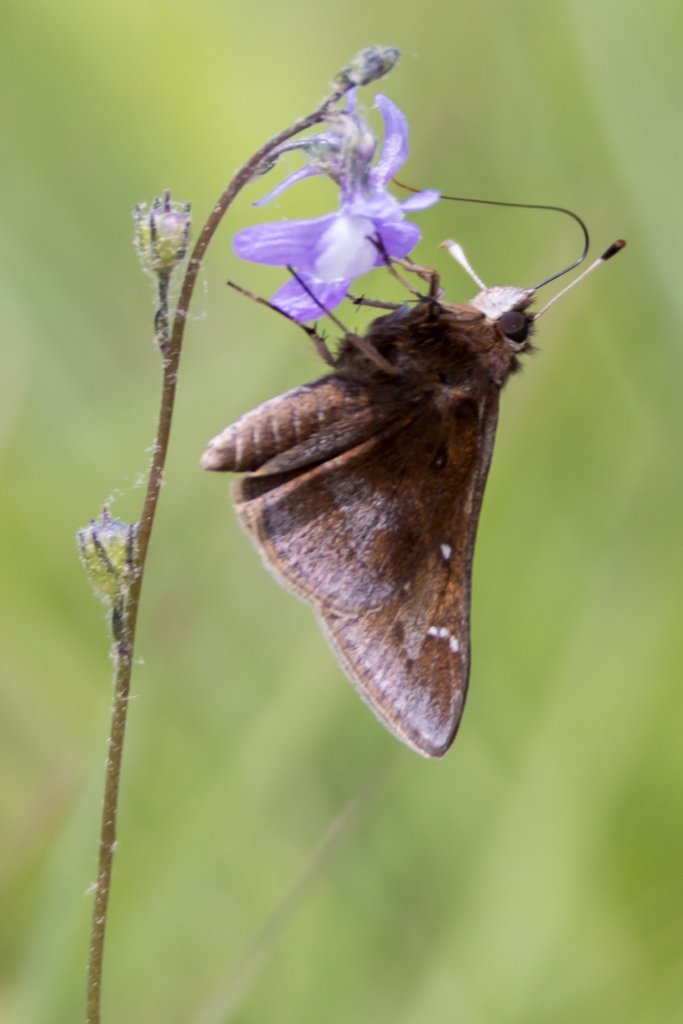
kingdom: Animalia
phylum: Arthropoda
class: Insecta
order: Lepidoptera
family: Hesperiidae
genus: Atrytonopsis
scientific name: Atrytonopsis hianna
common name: Dusted Skipper
